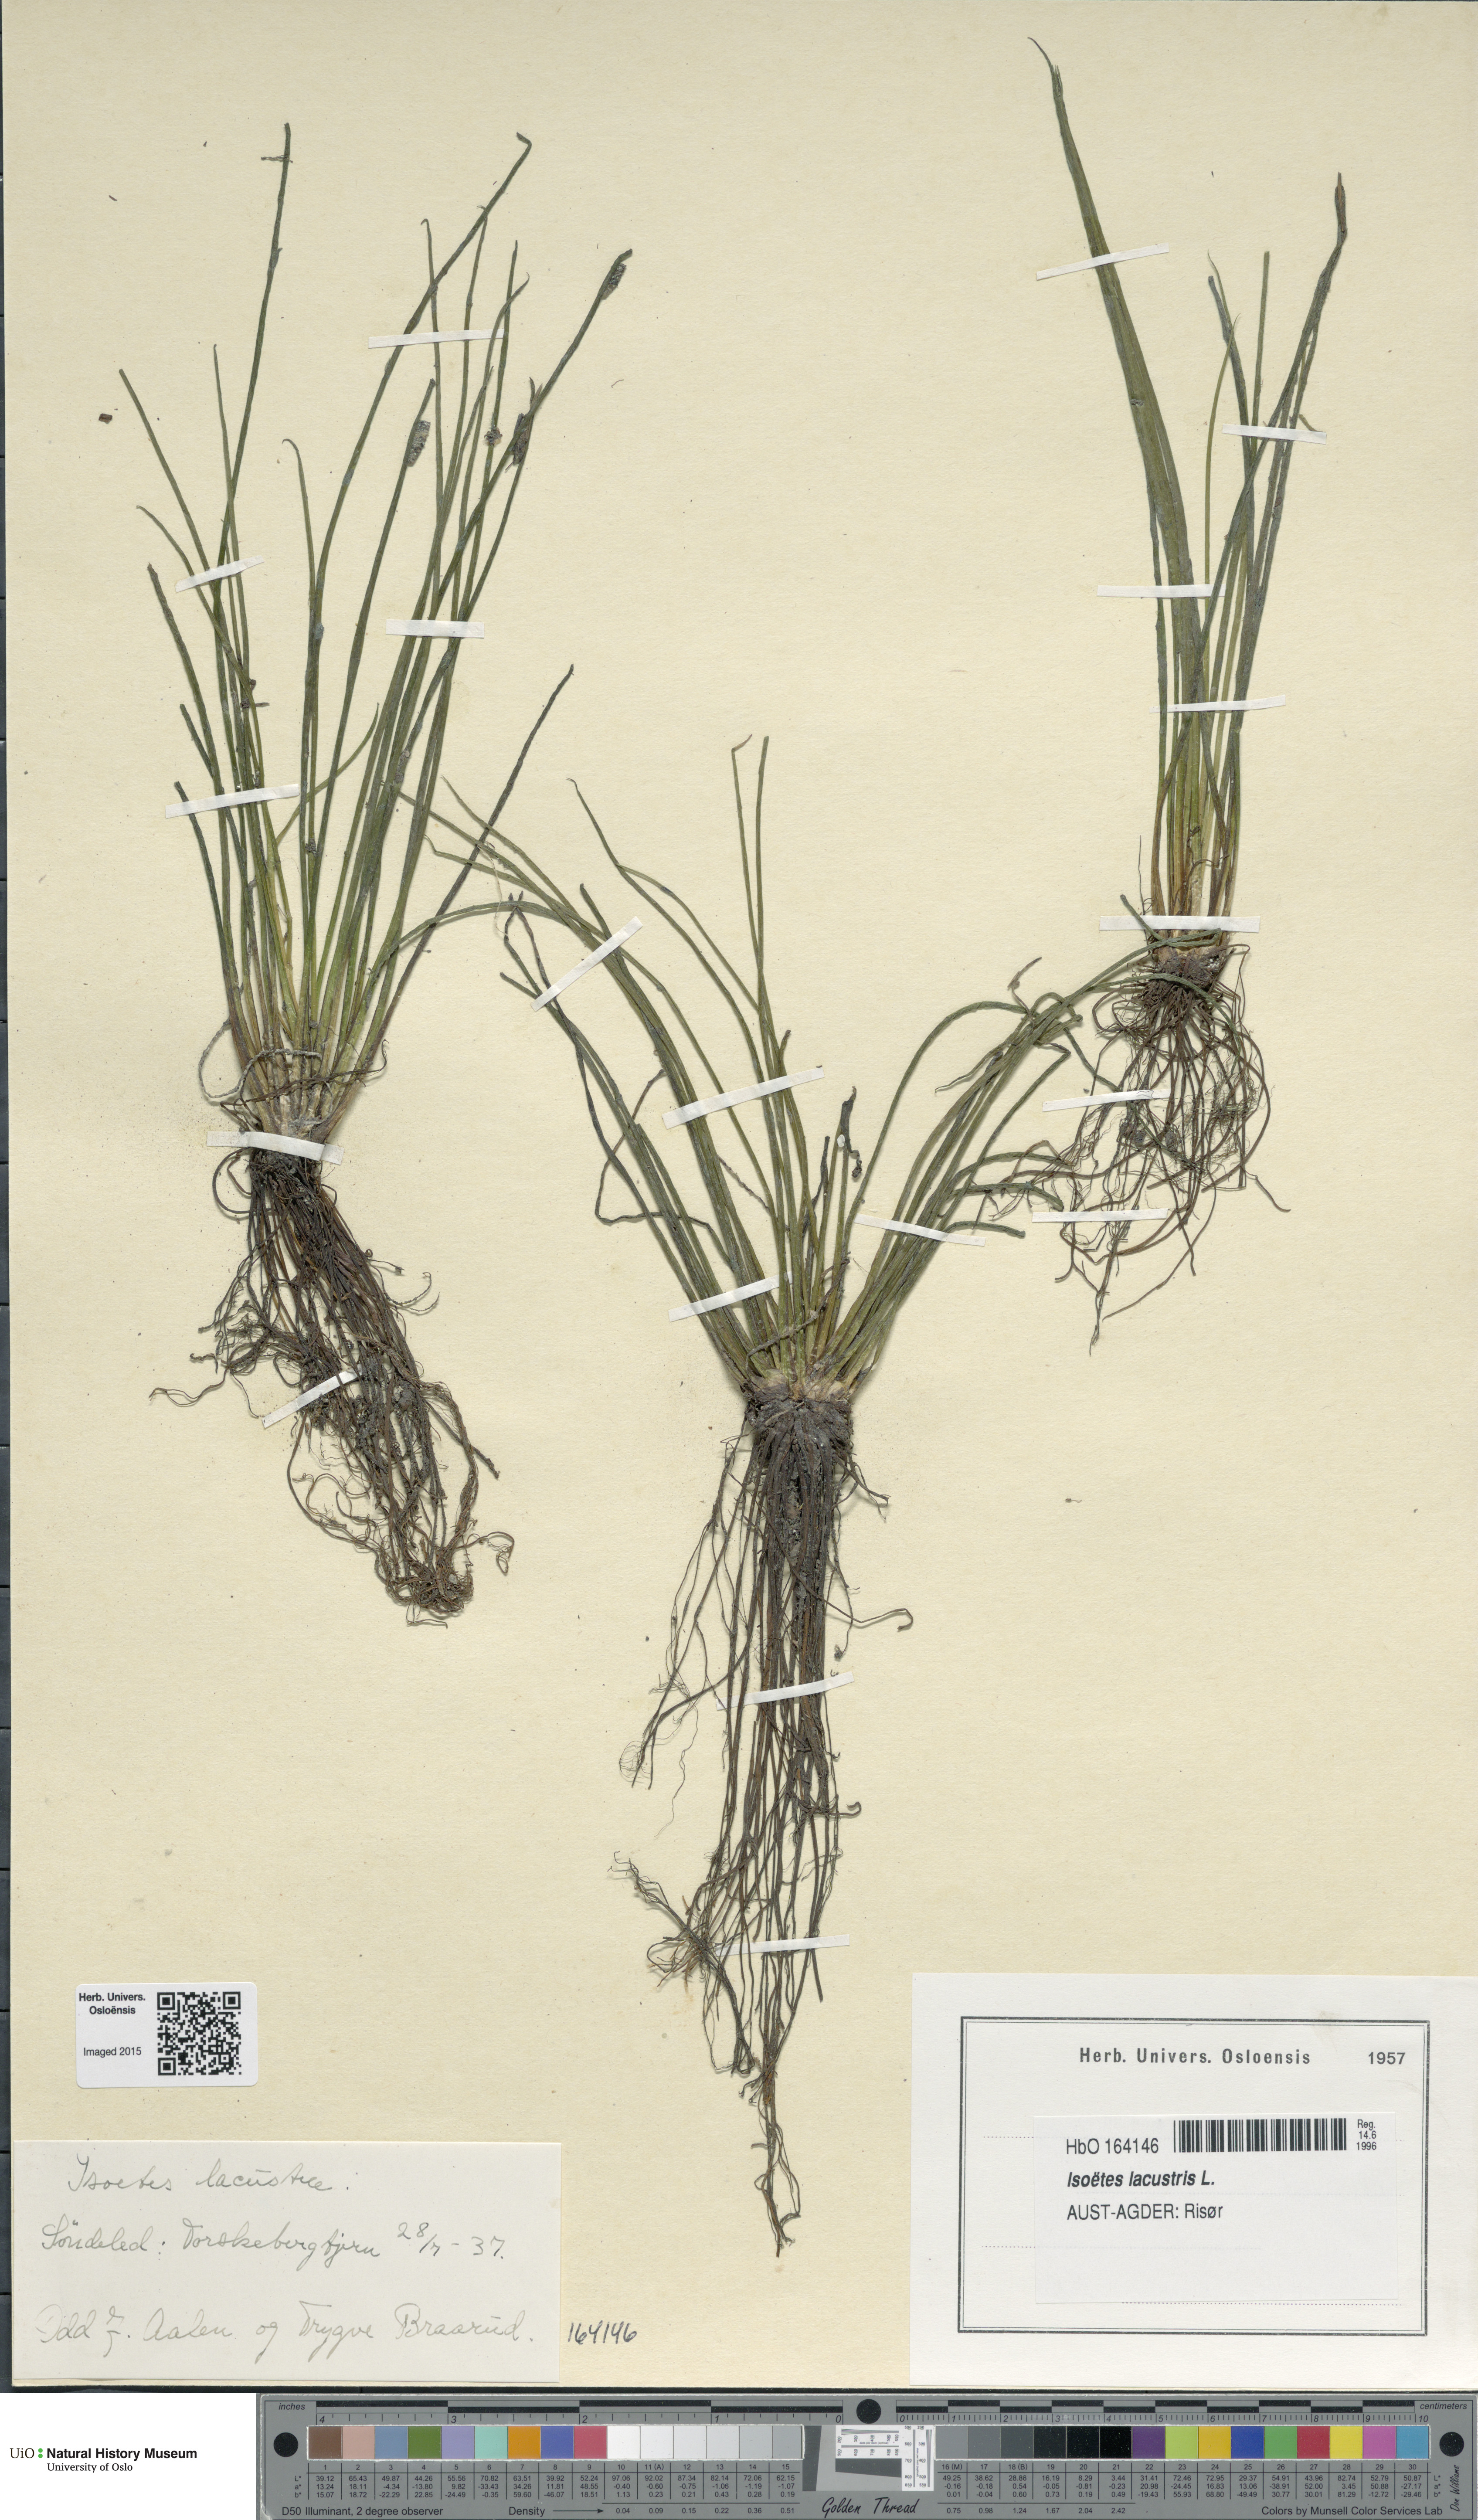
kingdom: Plantae
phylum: Tracheophyta
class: Lycopodiopsida
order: Isoetales
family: Isoetaceae
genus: Isoetes
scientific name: Isoetes lacustris
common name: Common quillwort
